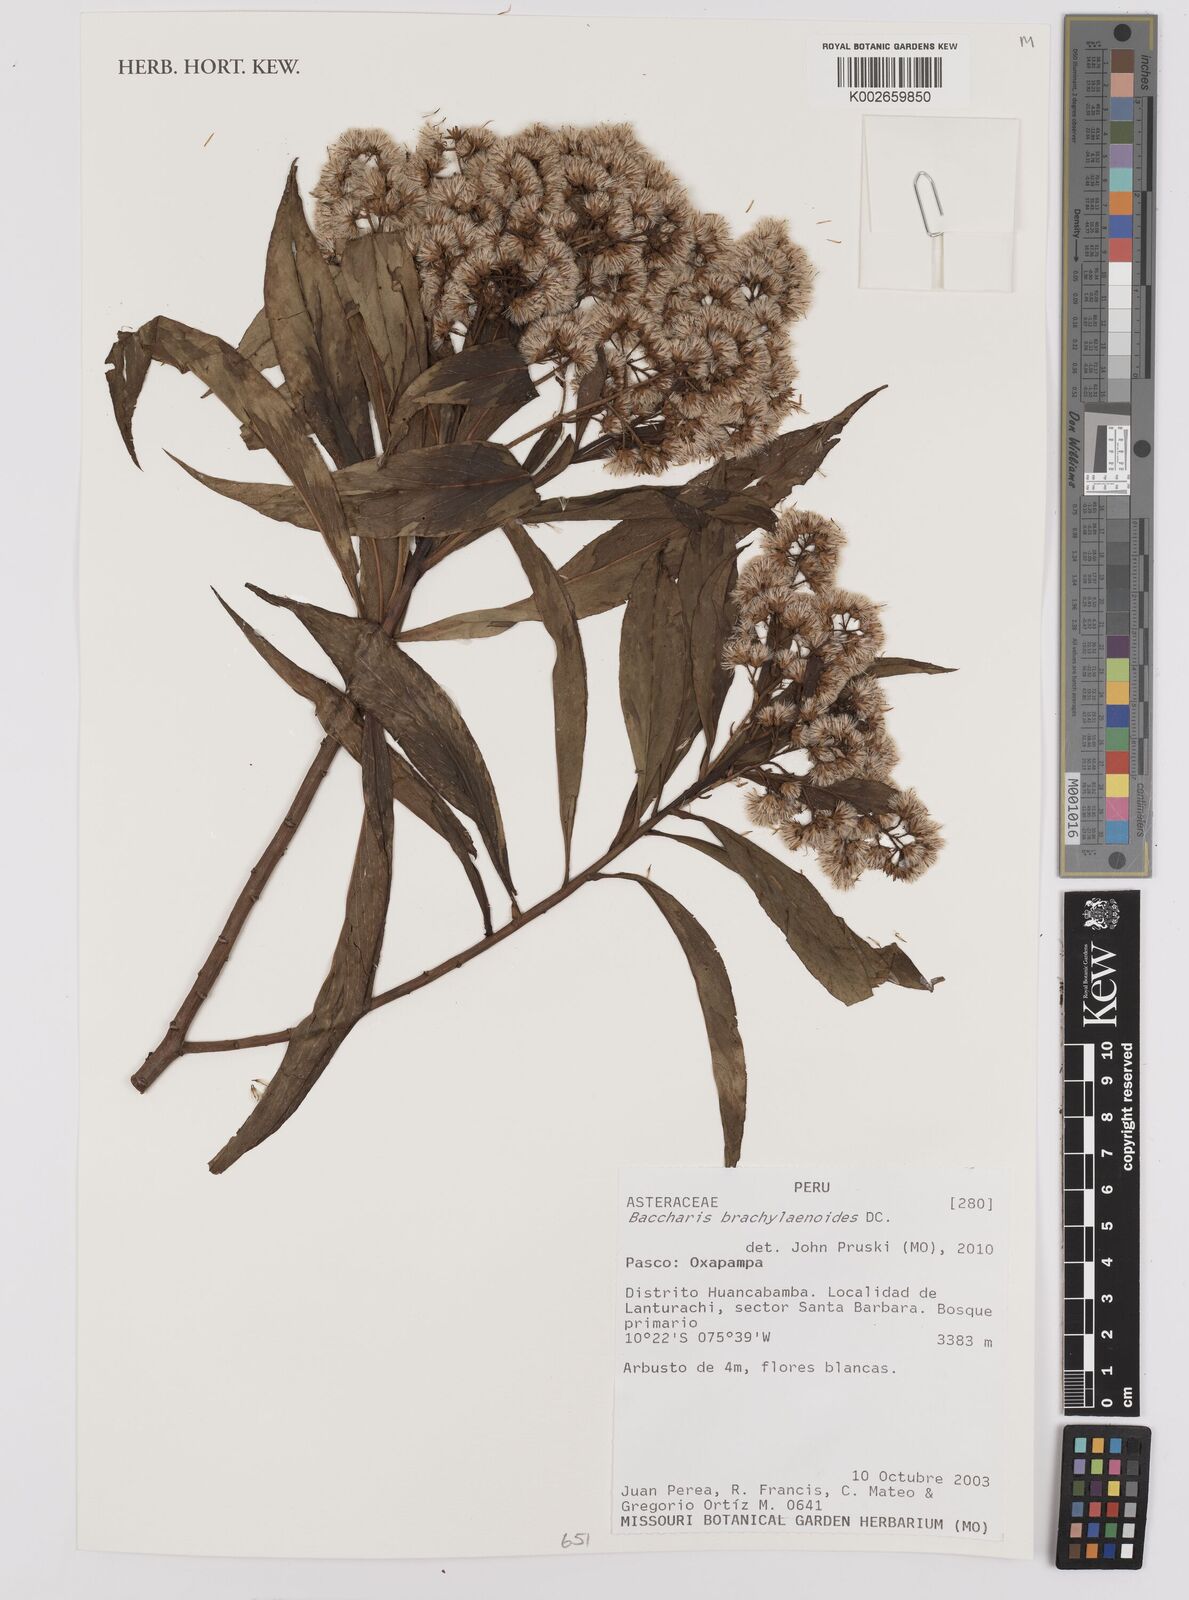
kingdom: Plantae
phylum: Tracheophyta
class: Magnoliopsida
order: Asterales
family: Asteraceae
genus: Baccharis
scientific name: Baccharis oblongifolia
